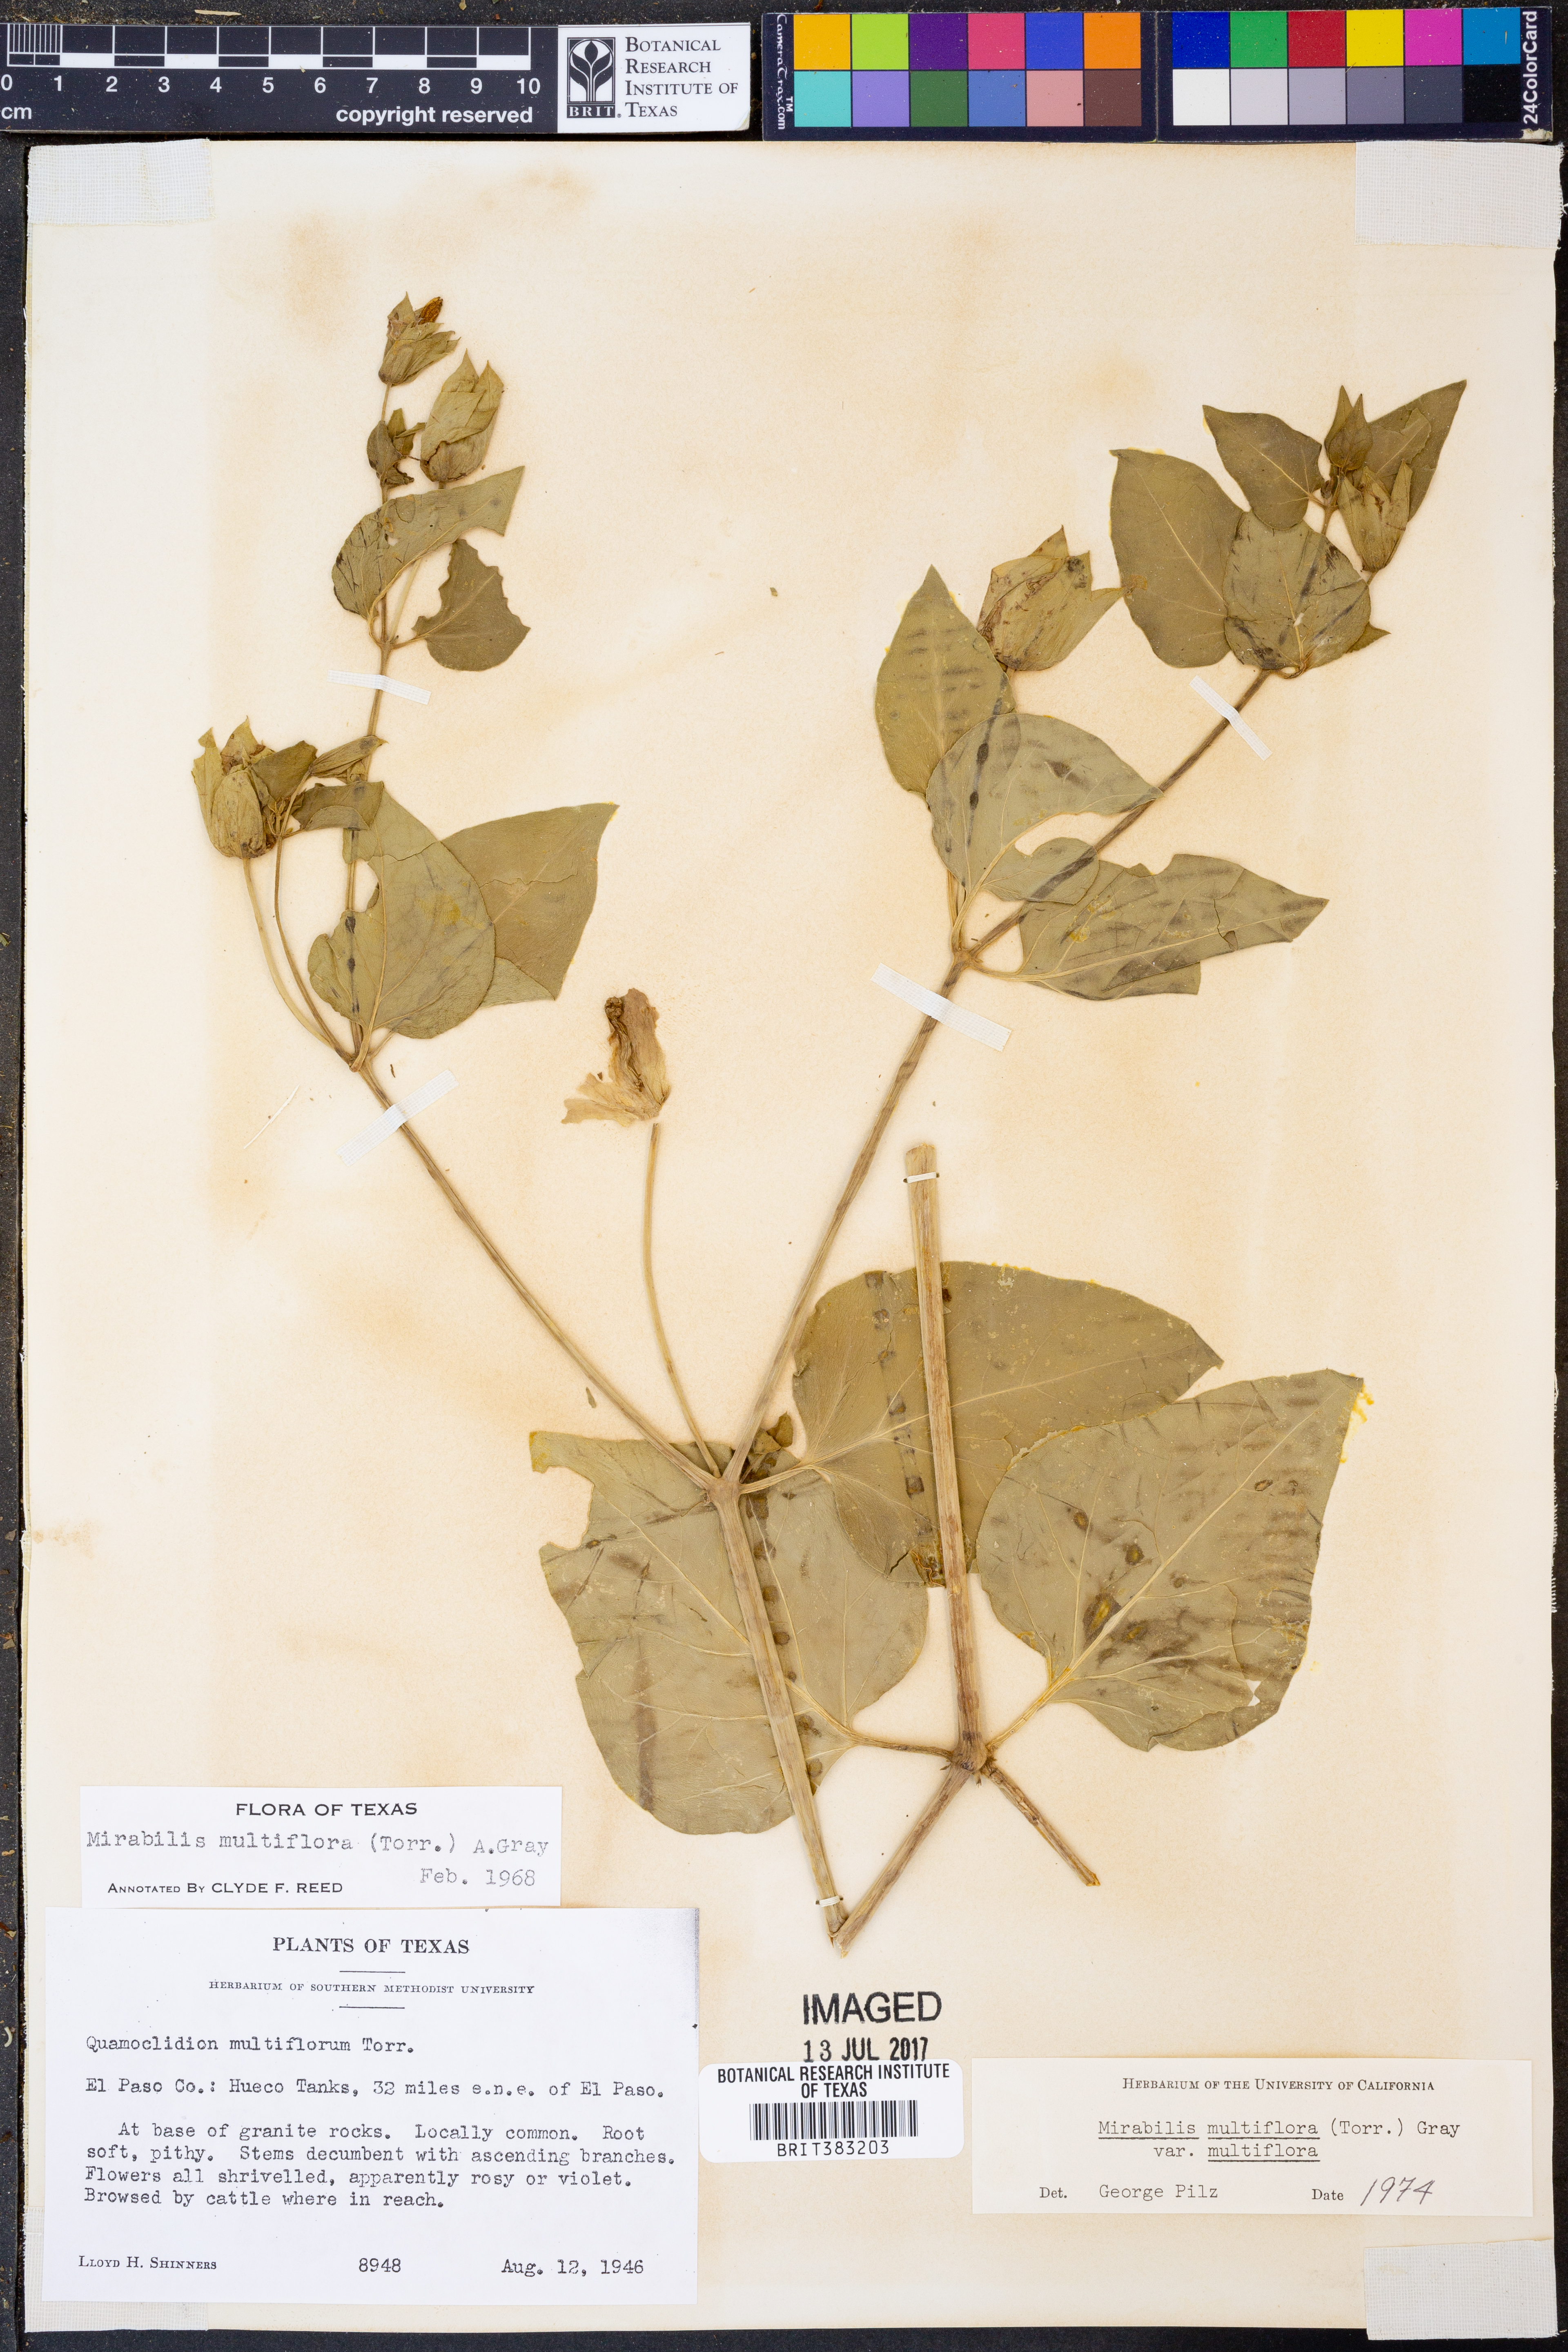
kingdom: Plantae
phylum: Tracheophyta
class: Magnoliopsida
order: Caryophyllales
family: Nyctaginaceae
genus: Mirabilis
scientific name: Mirabilis multiflora
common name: Froebel's four-o'clock
